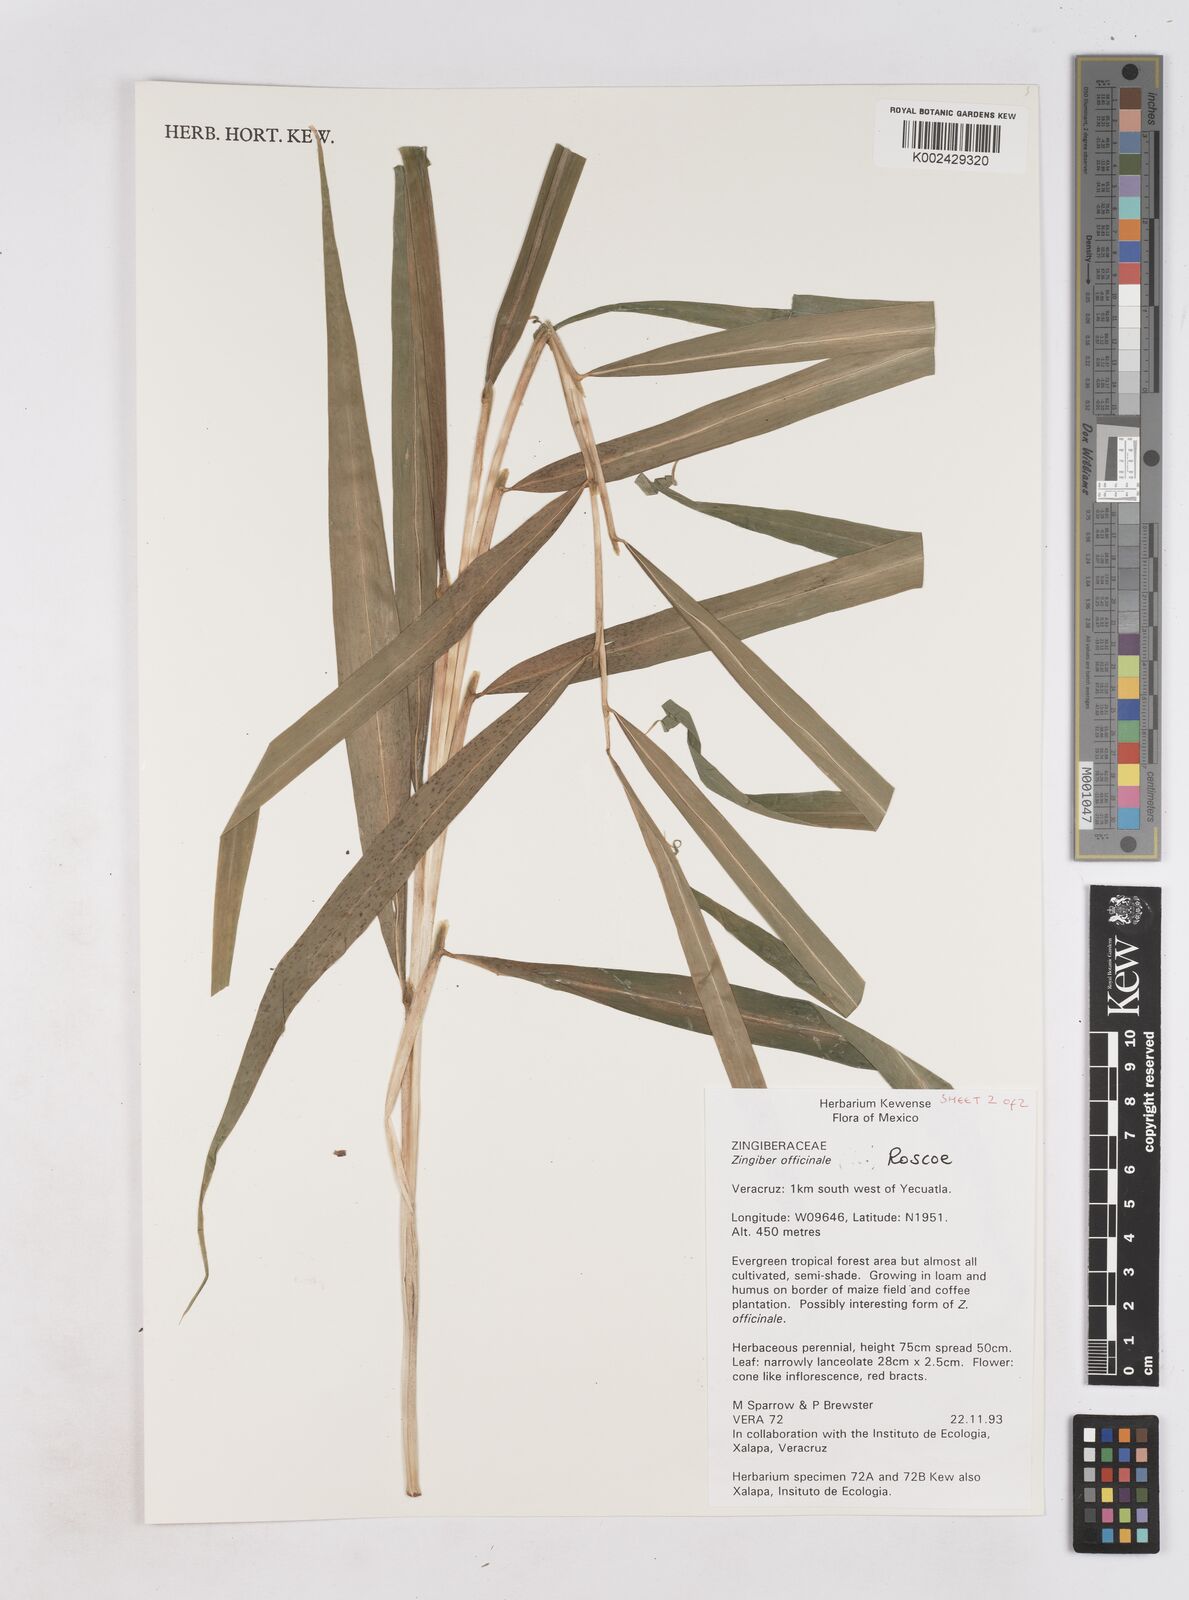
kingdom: Plantae
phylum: Tracheophyta
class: Liliopsida
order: Zingiberales
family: Zingiberaceae
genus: Zingiber
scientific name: Zingiber officinale
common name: Ginger
